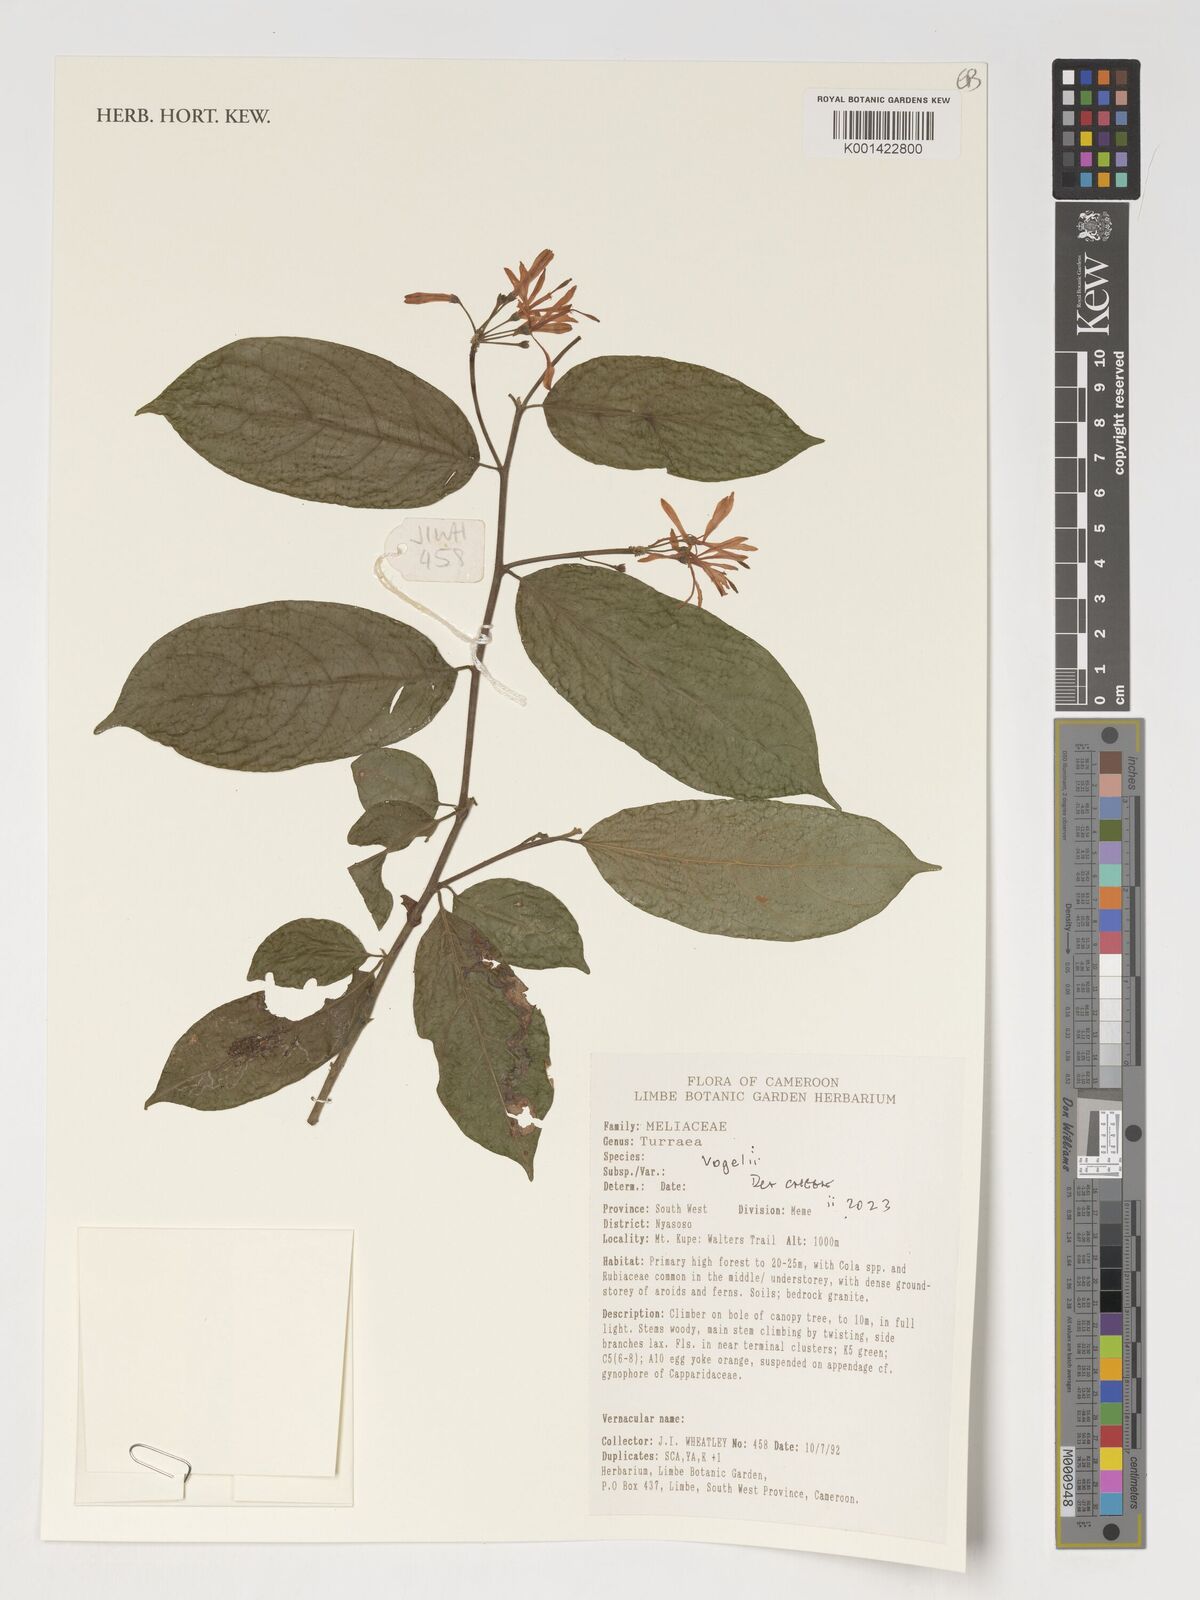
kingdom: Plantae
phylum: Tracheophyta
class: Magnoliopsida
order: Sapindales
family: Meliaceae
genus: Turraea
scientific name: Turraea vogelii
